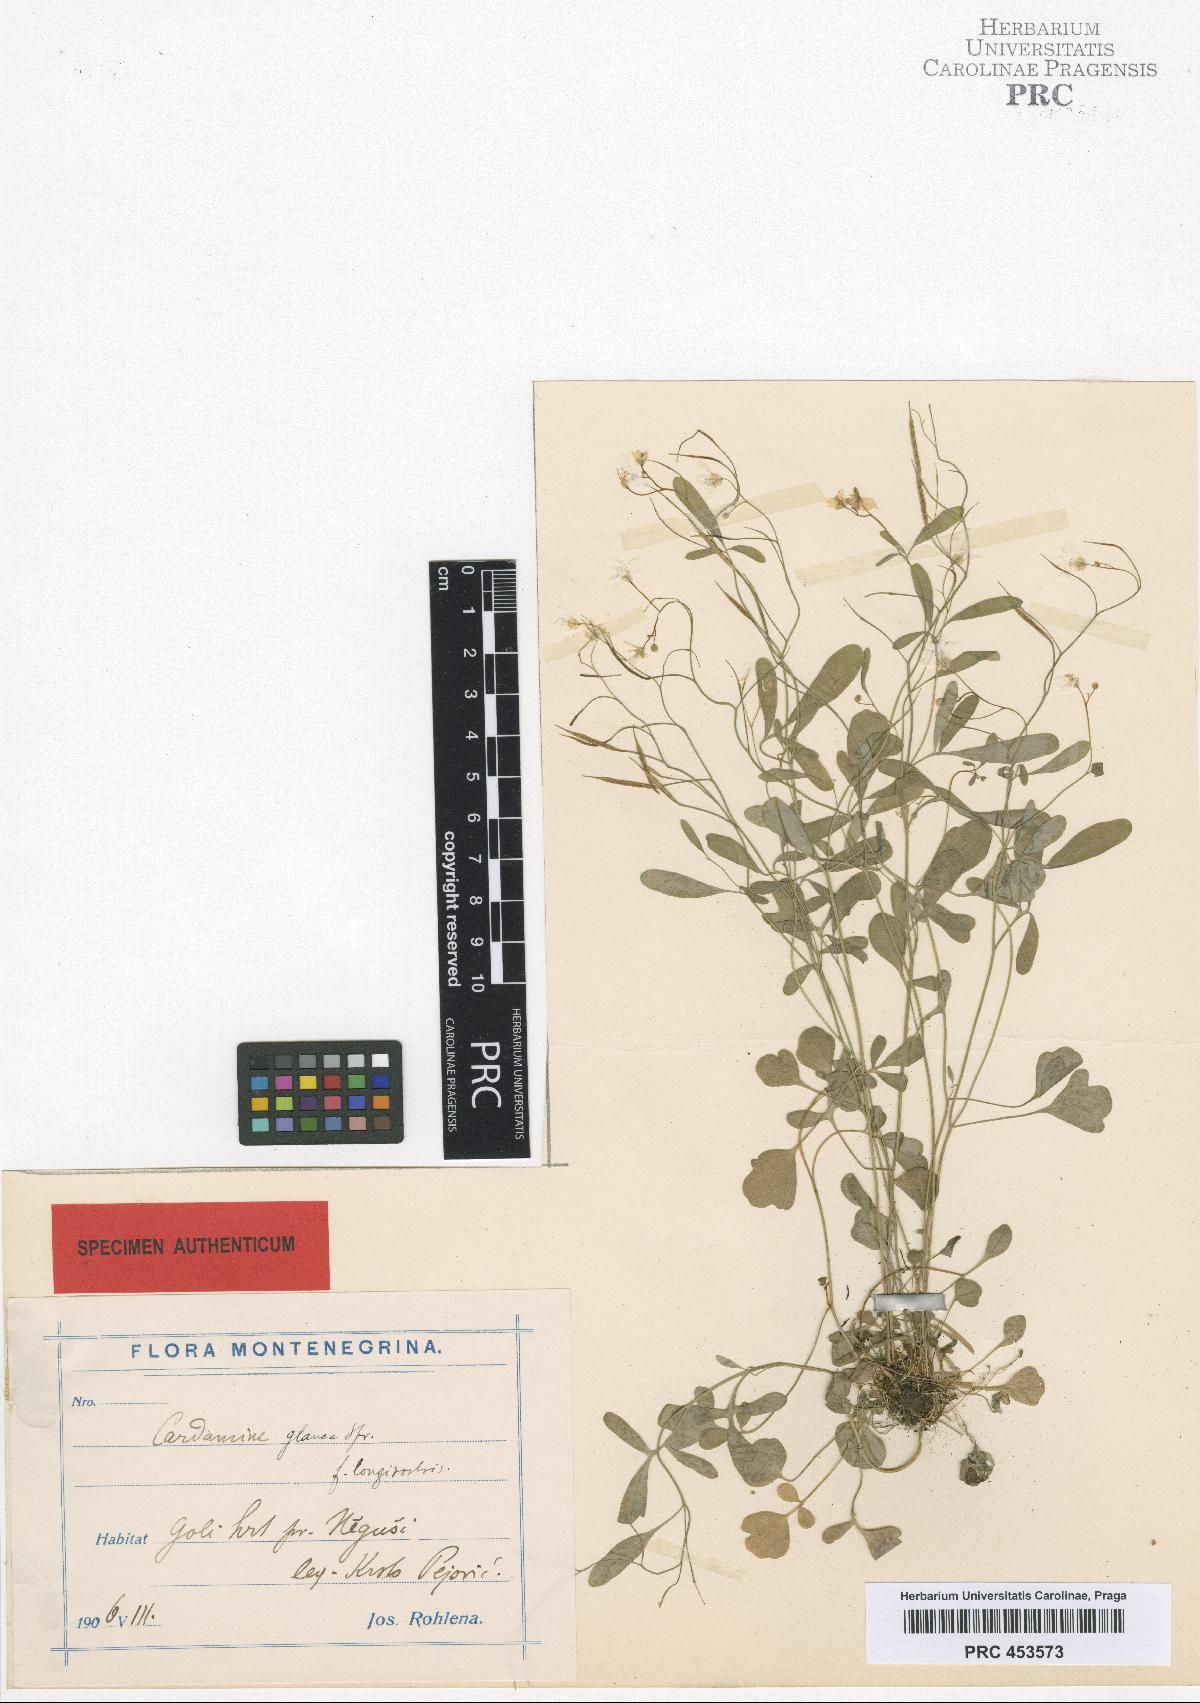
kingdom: Plantae
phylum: Tracheophyta
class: Magnoliopsida
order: Brassicales
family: Brassicaceae
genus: Cardamine
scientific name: Cardamine glauca
